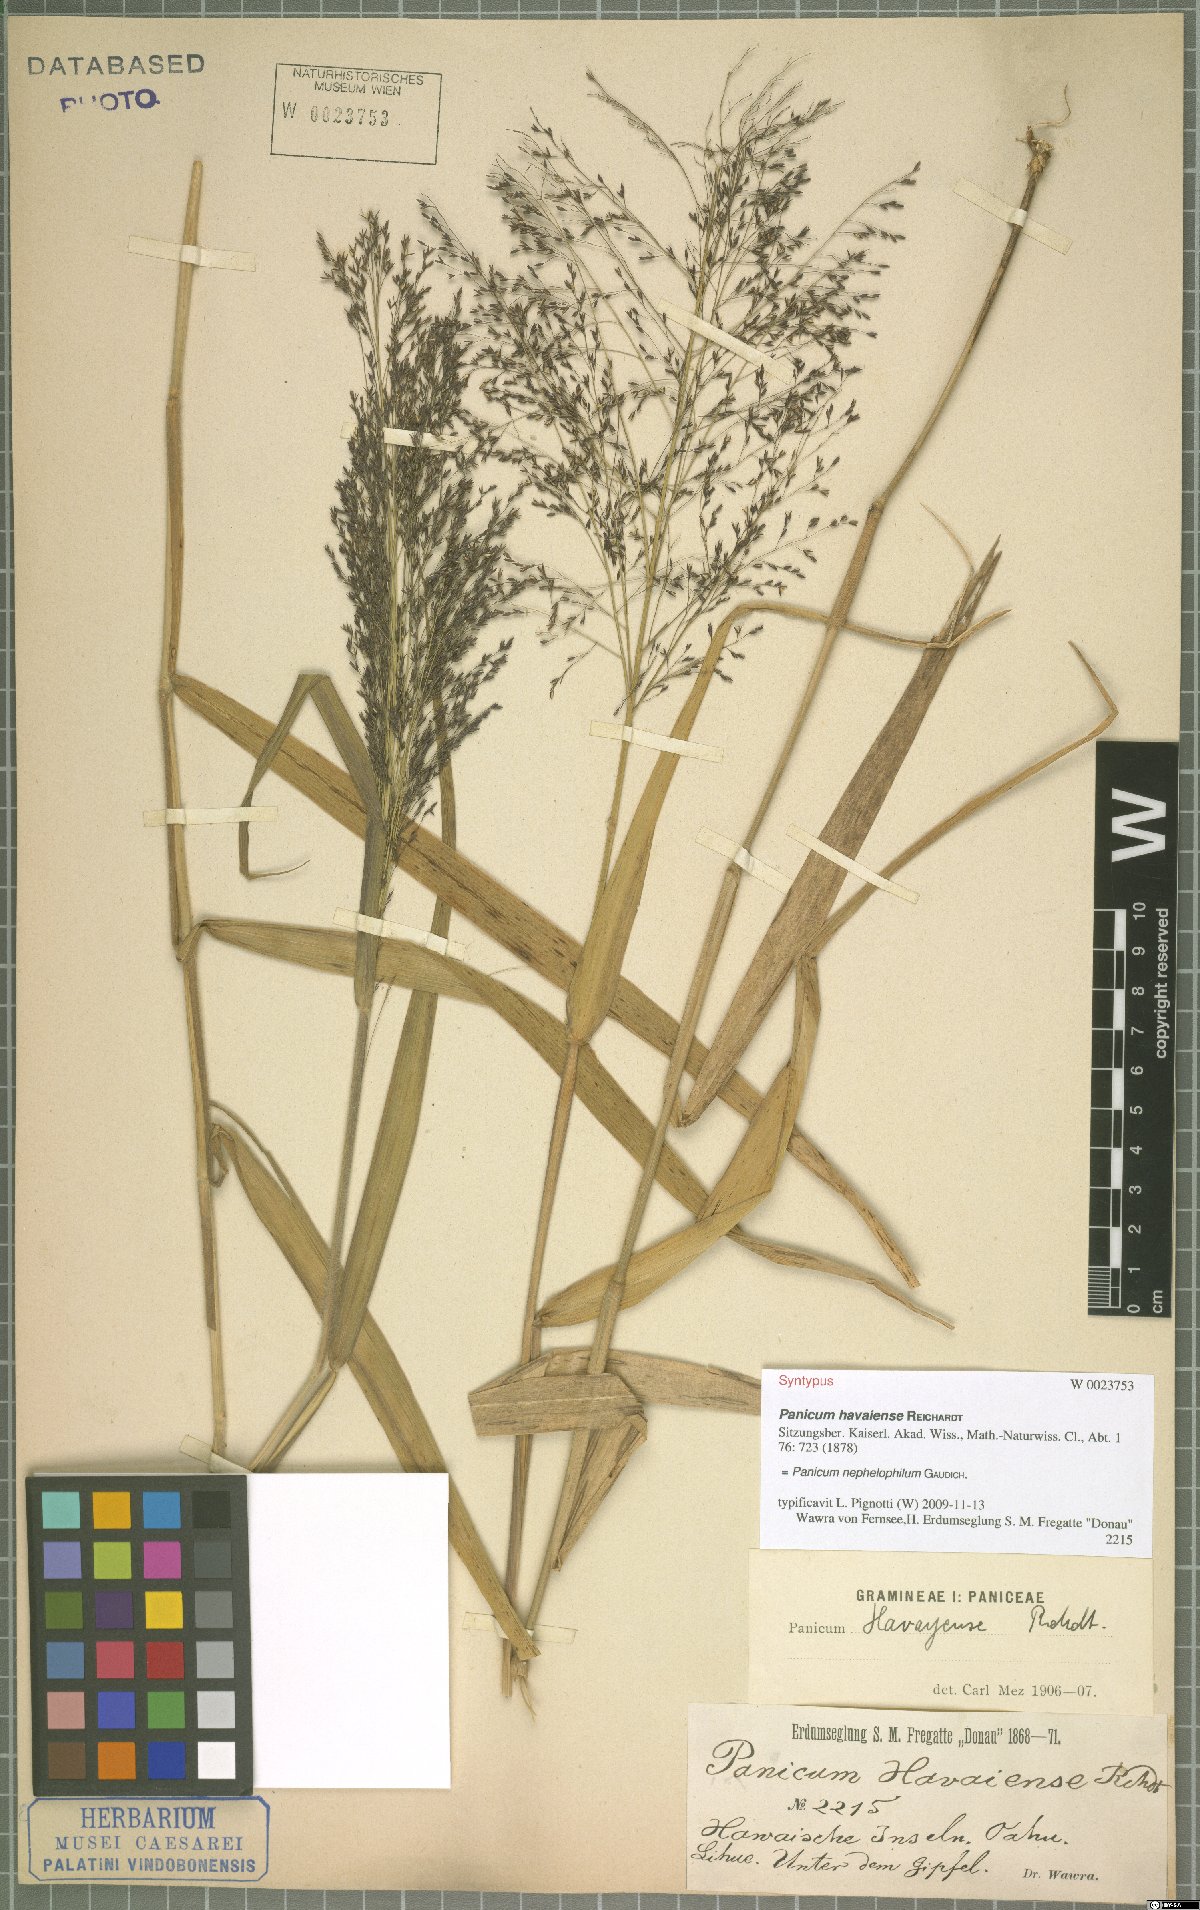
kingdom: Plantae
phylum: Tracheophyta
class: Liliopsida
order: Poales
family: Poaceae
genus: Panicum
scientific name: Panicum nephelophilum
